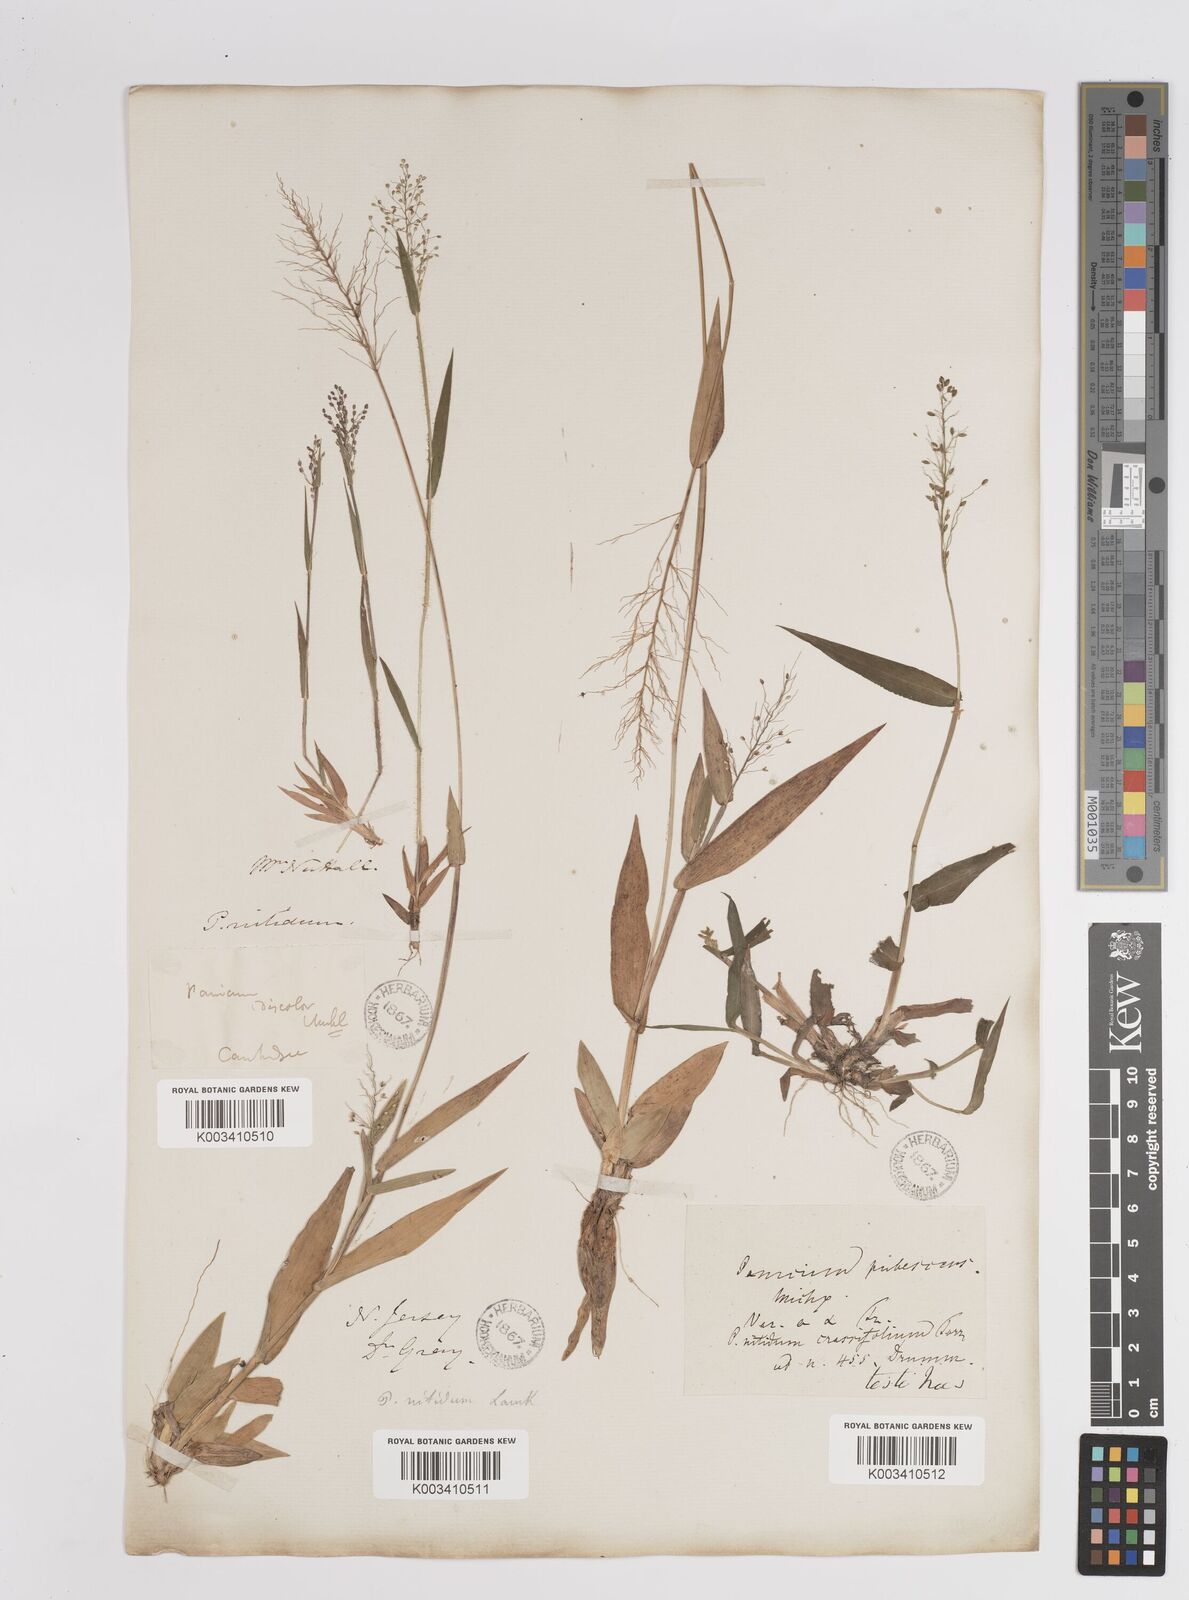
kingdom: Plantae
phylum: Tracheophyta
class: Liliopsida
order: Poales
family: Poaceae
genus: Dichanthelium
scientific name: Dichanthelium polyanthes
